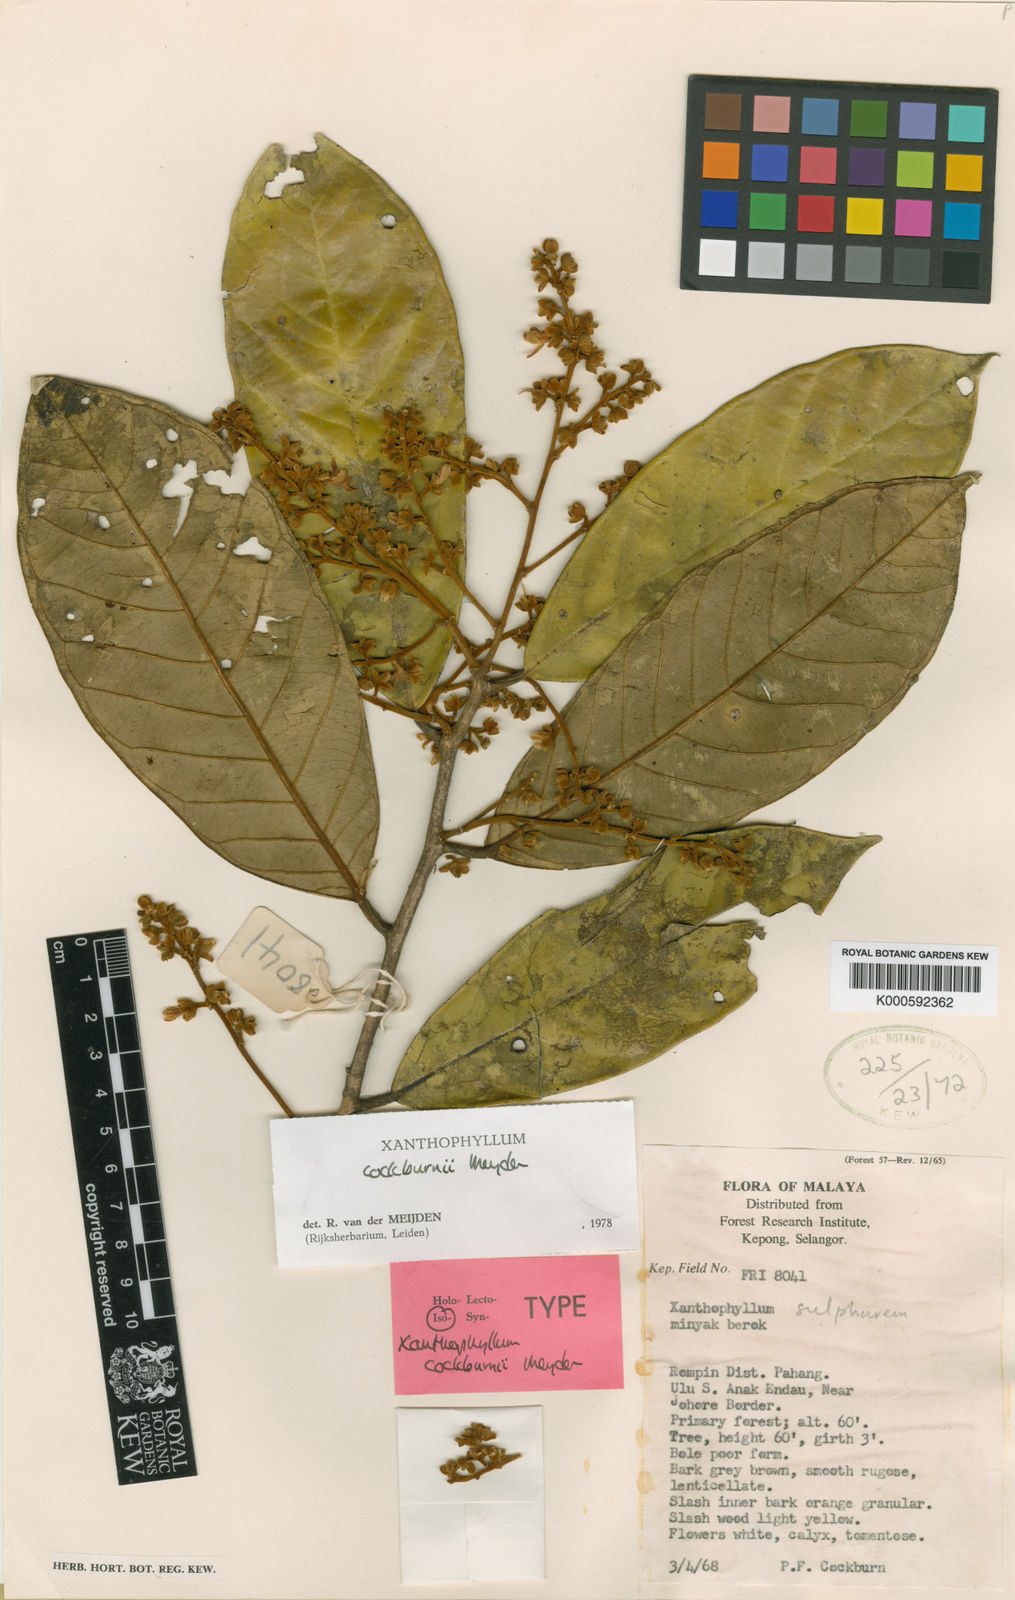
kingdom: Plantae
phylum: Tracheophyta
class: Magnoliopsida
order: Fabales
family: Polygalaceae
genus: Xanthophyllum
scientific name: Xanthophyllum cockburnii
